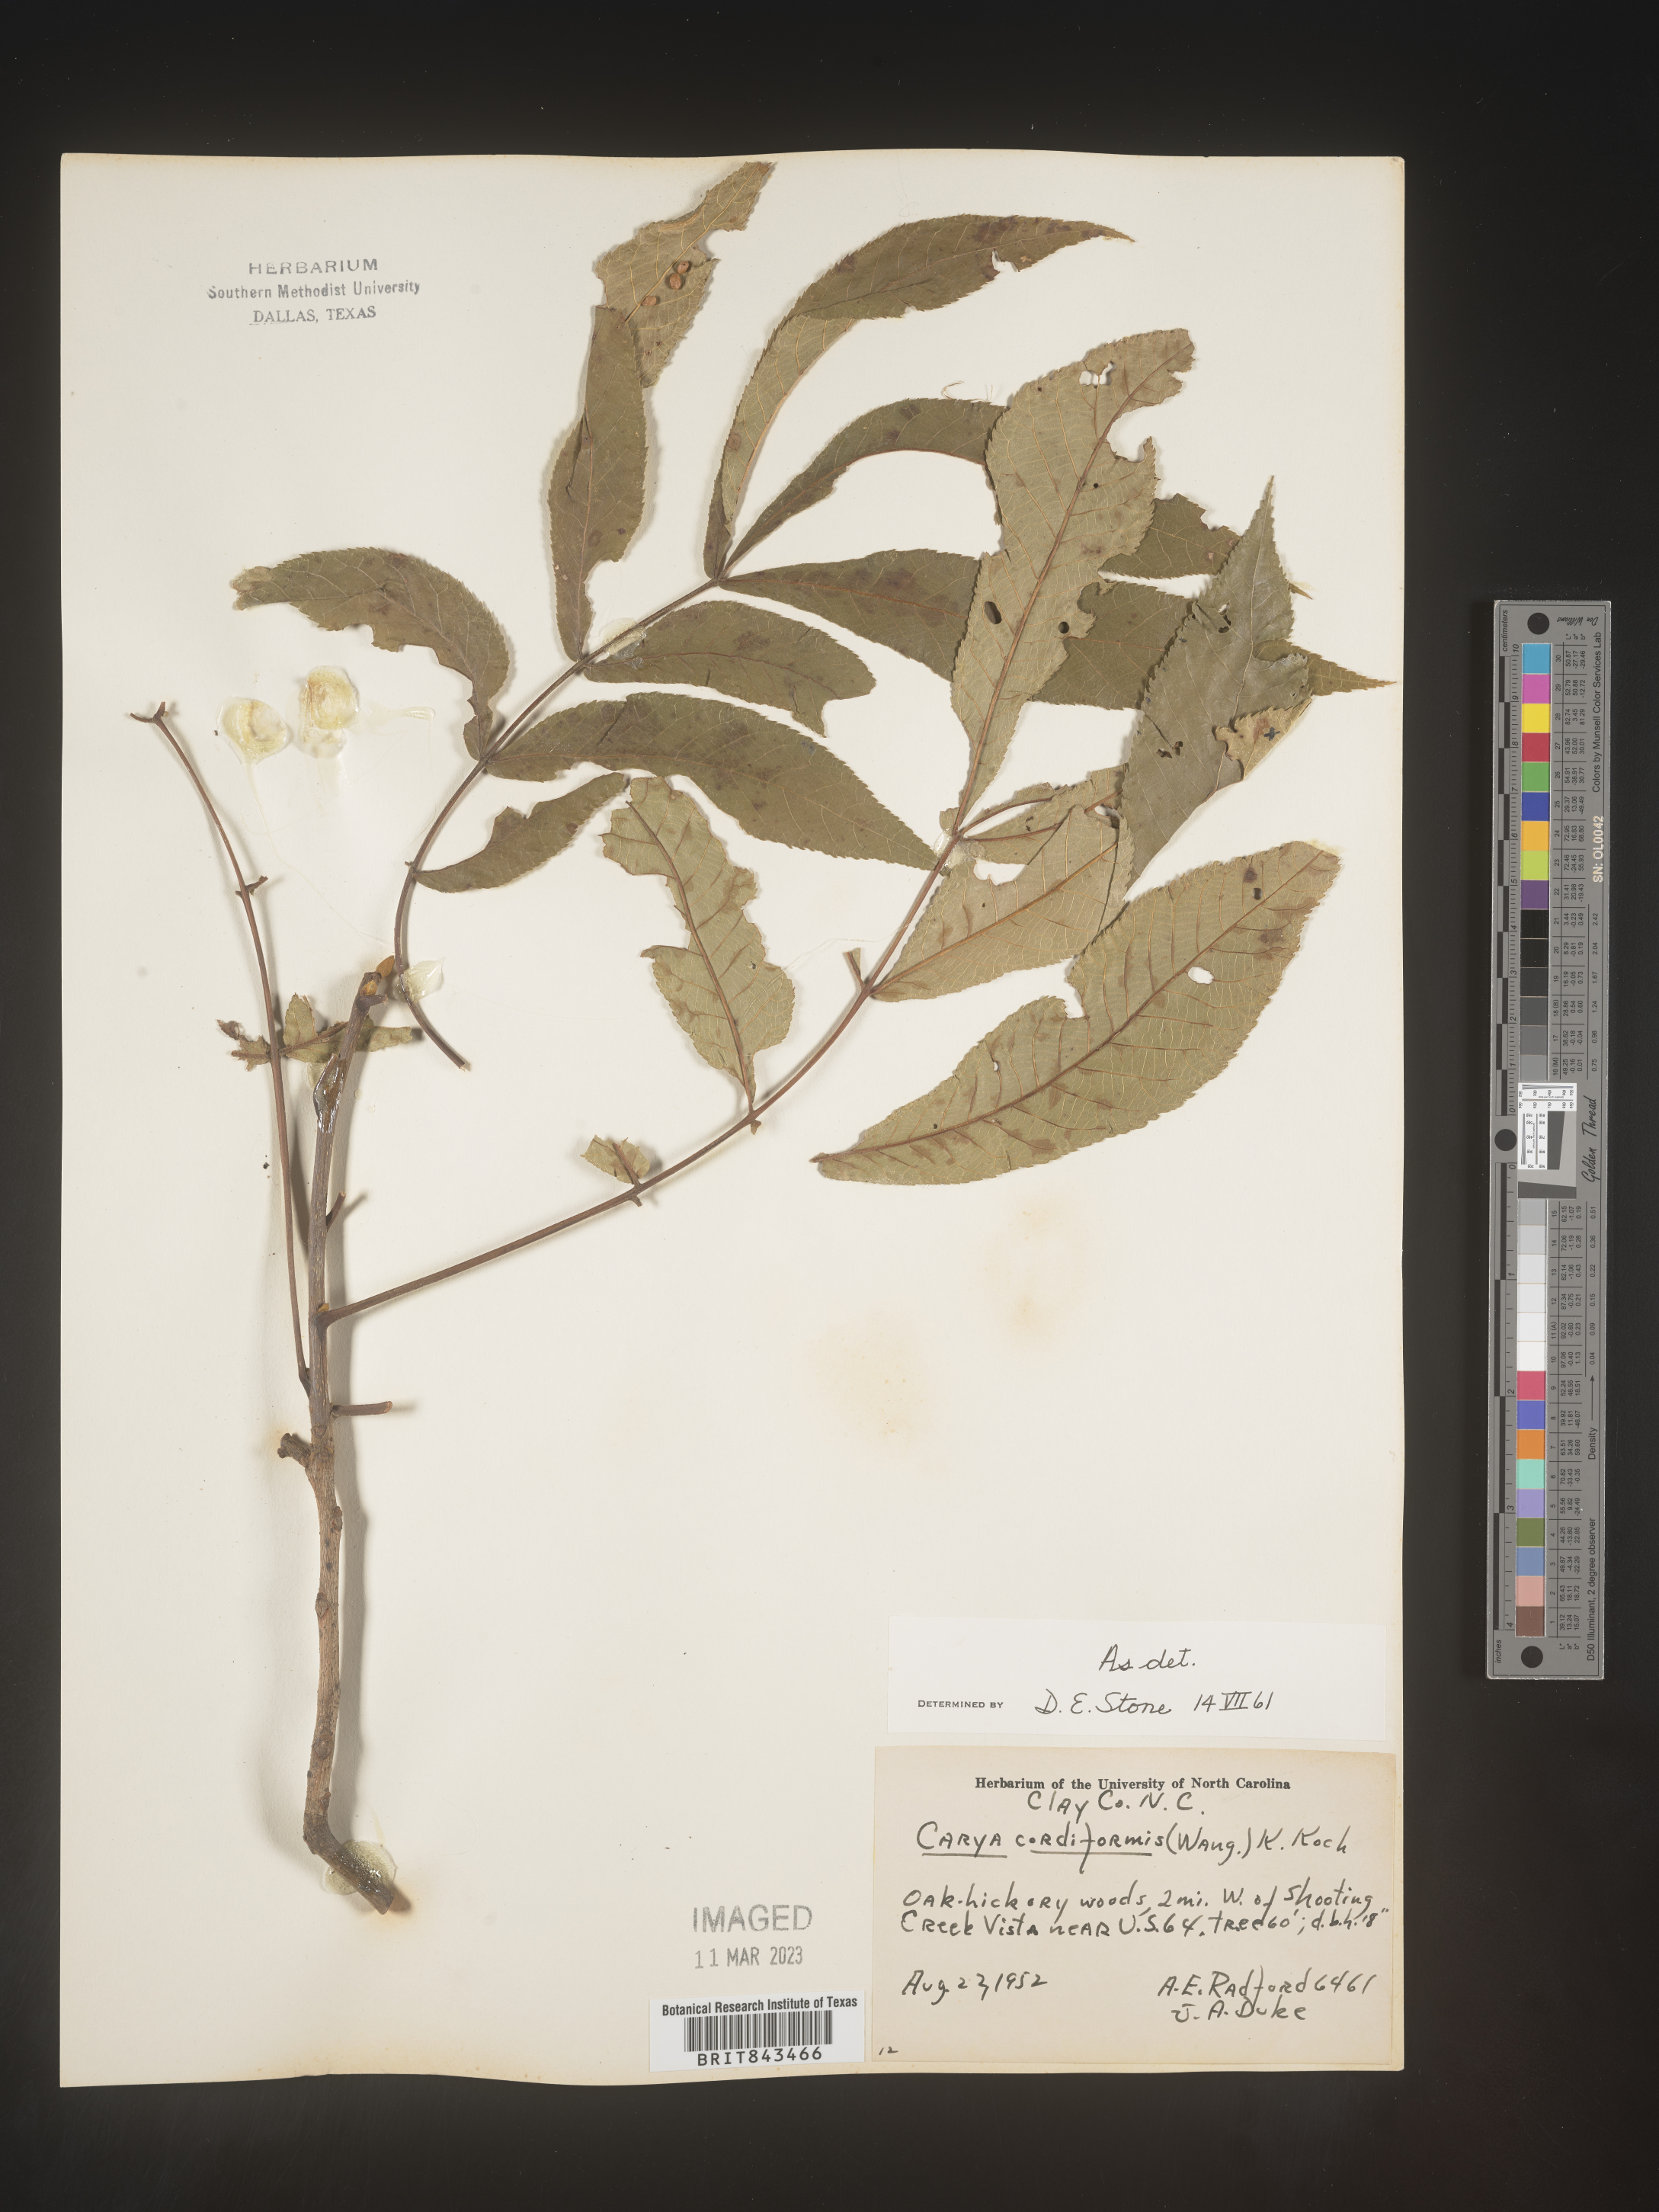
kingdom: Plantae
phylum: Tracheophyta
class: Magnoliopsida
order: Fagales
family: Juglandaceae
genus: Carya
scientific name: Carya cordiformis
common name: Bitternut hickory
